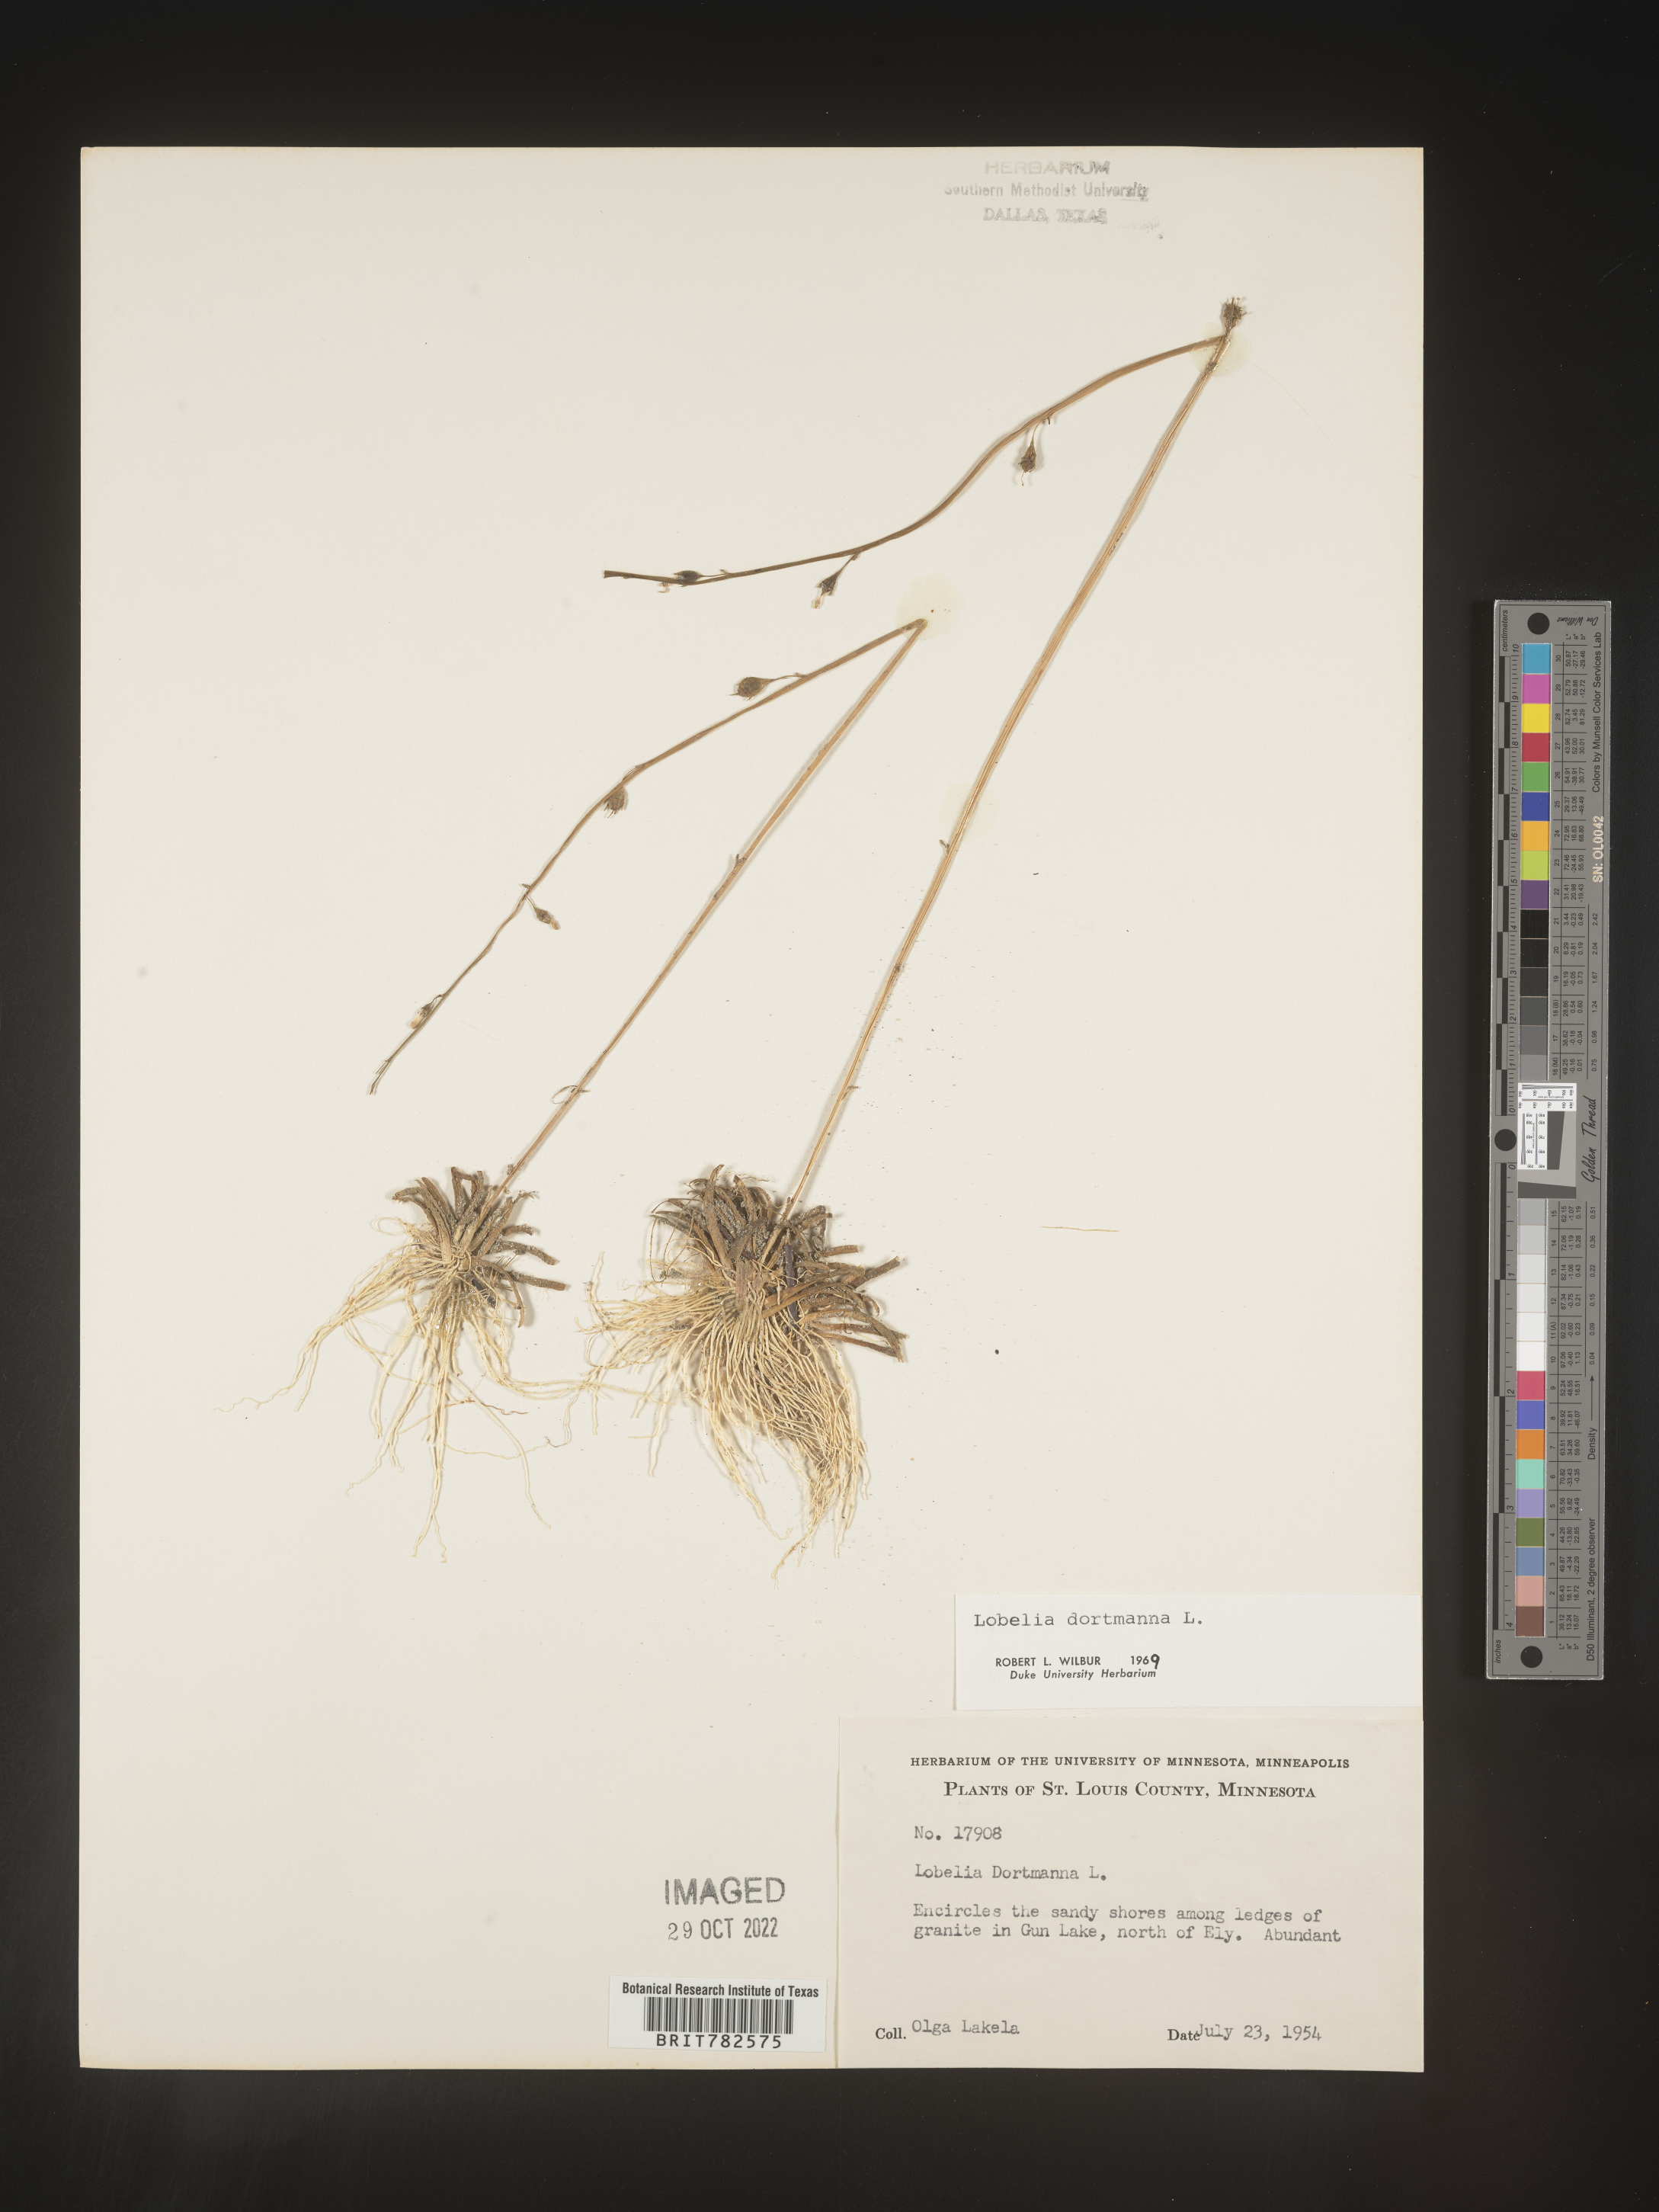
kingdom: Plantae
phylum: Tracheophyta
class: Magnoliopsida
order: Asterales
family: Campanulaceae
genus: Lobelia
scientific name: Lobelia
